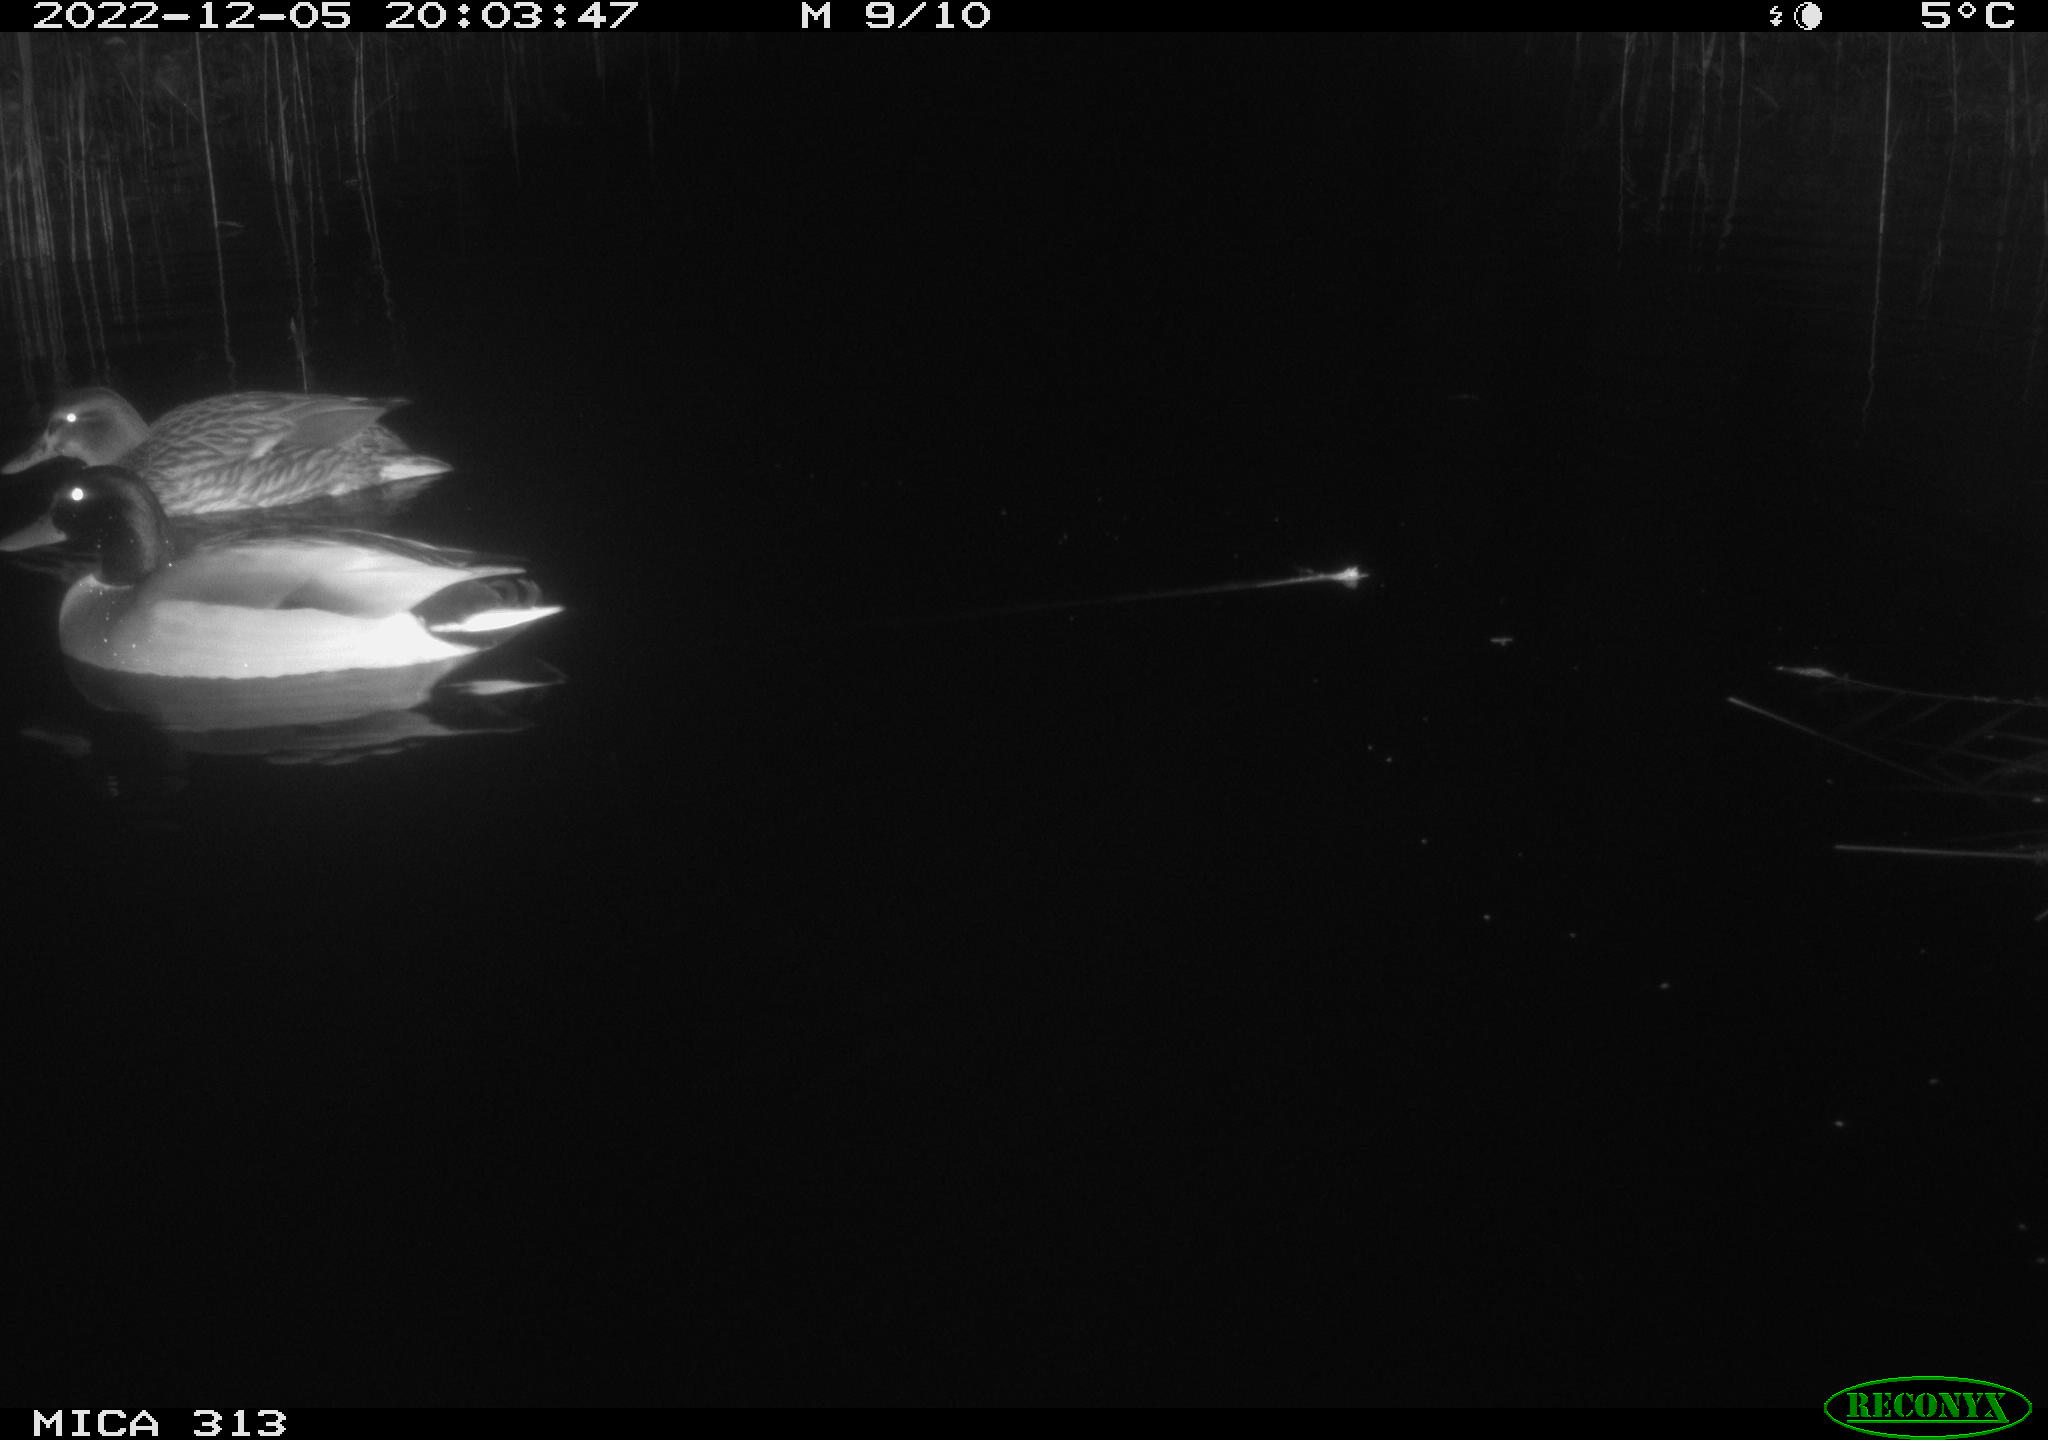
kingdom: Animalia
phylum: Chordata
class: Aves
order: Anseriformes
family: Anatidae
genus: Anas
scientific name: Anas
